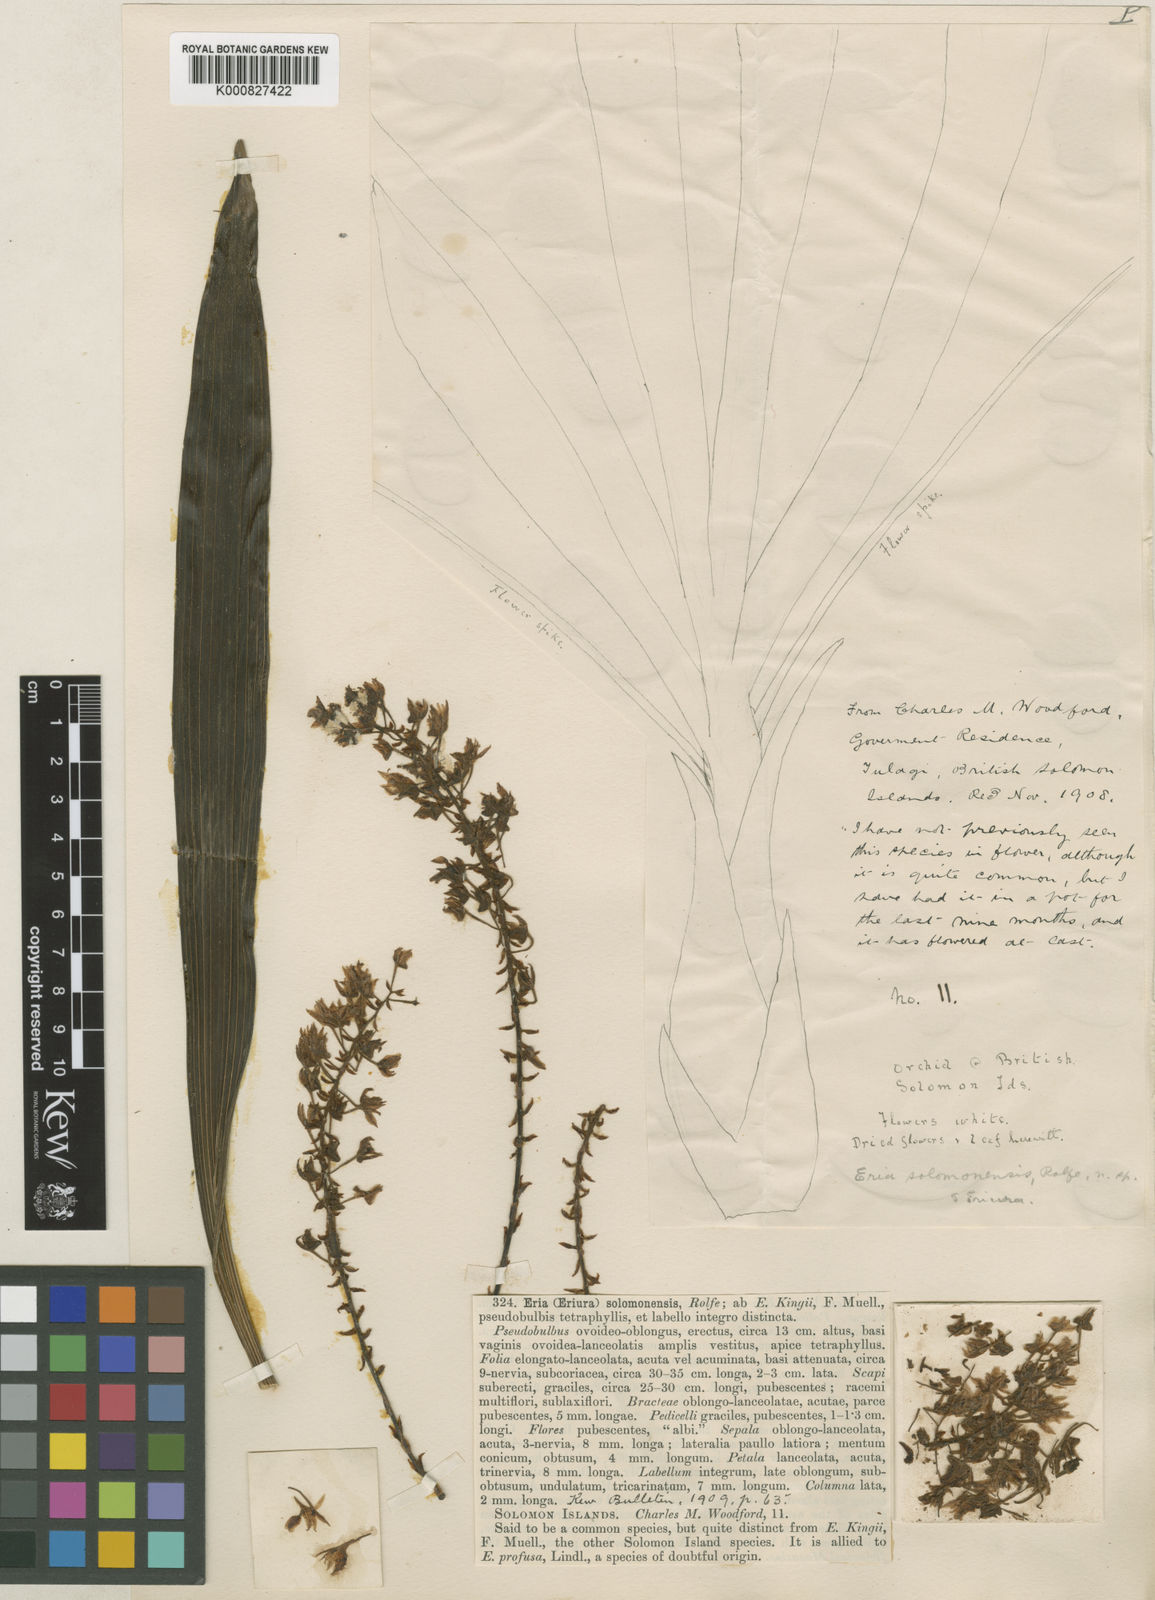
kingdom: Plantae
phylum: Tracheophyta
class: Liliopsida
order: Asparagales
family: Orchidaceae
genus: Pinalia
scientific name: Pinalia fitzalanii
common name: Common fuzz orchid
